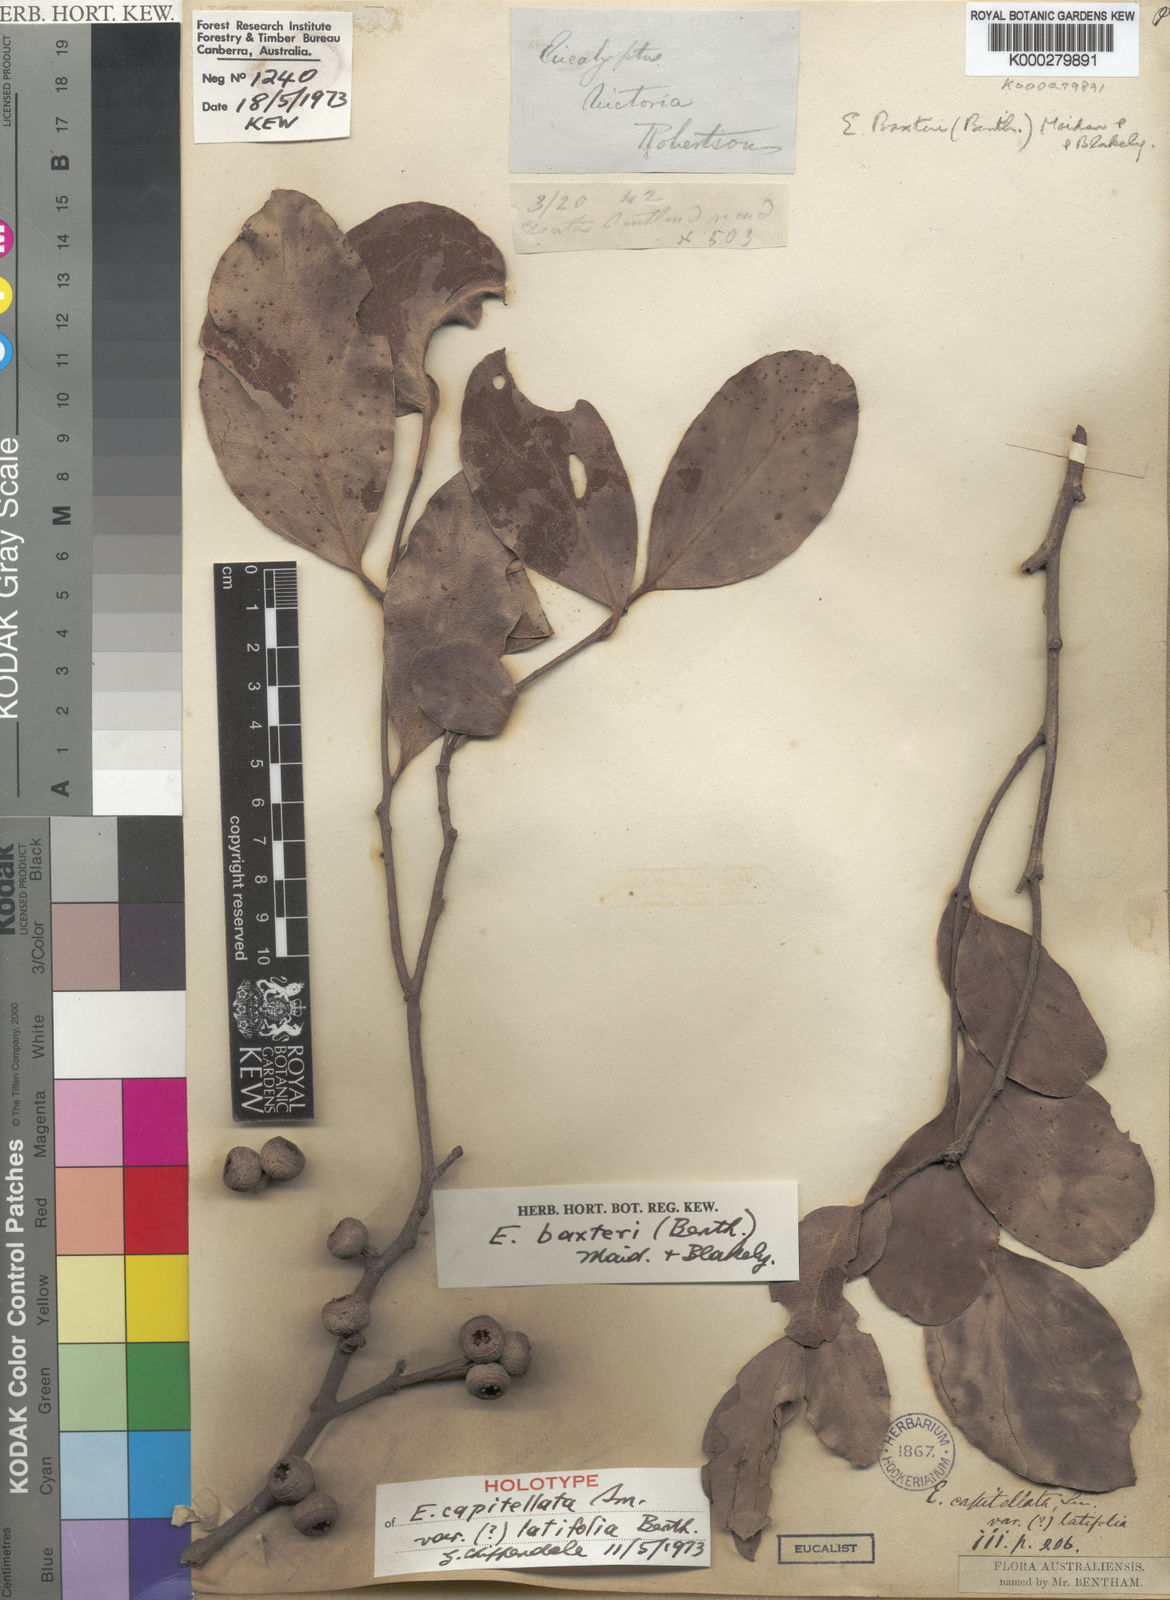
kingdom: Plantae
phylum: Tracheophyta
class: Magnoliopsida
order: Myrtales
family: Myrtaceae
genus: Eucalyptus
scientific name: Eucalyptus baxteri
